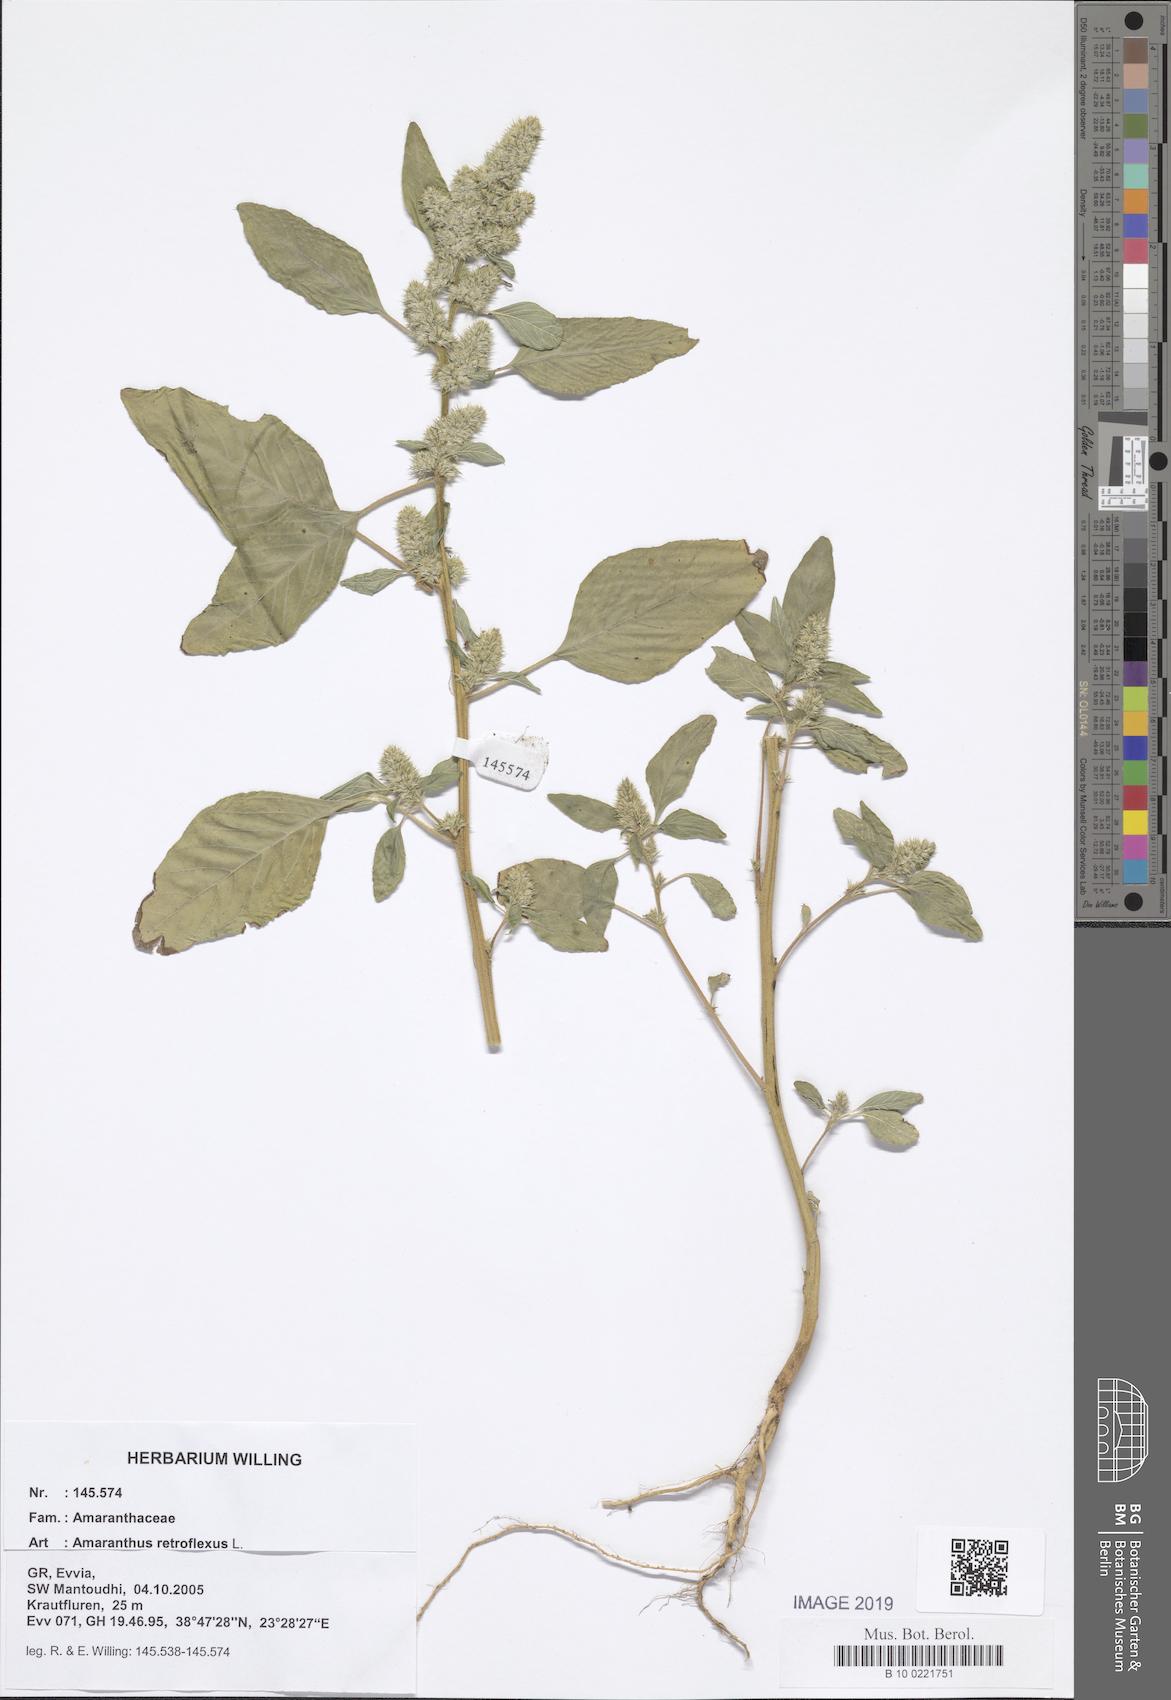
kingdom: Plantae
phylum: Tracheophyta
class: Magnoliopsida
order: Caryophyllales
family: Amaranthaceae
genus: Amaranthus
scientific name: Amaranthus retroflexus
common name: Redroot amaranth
